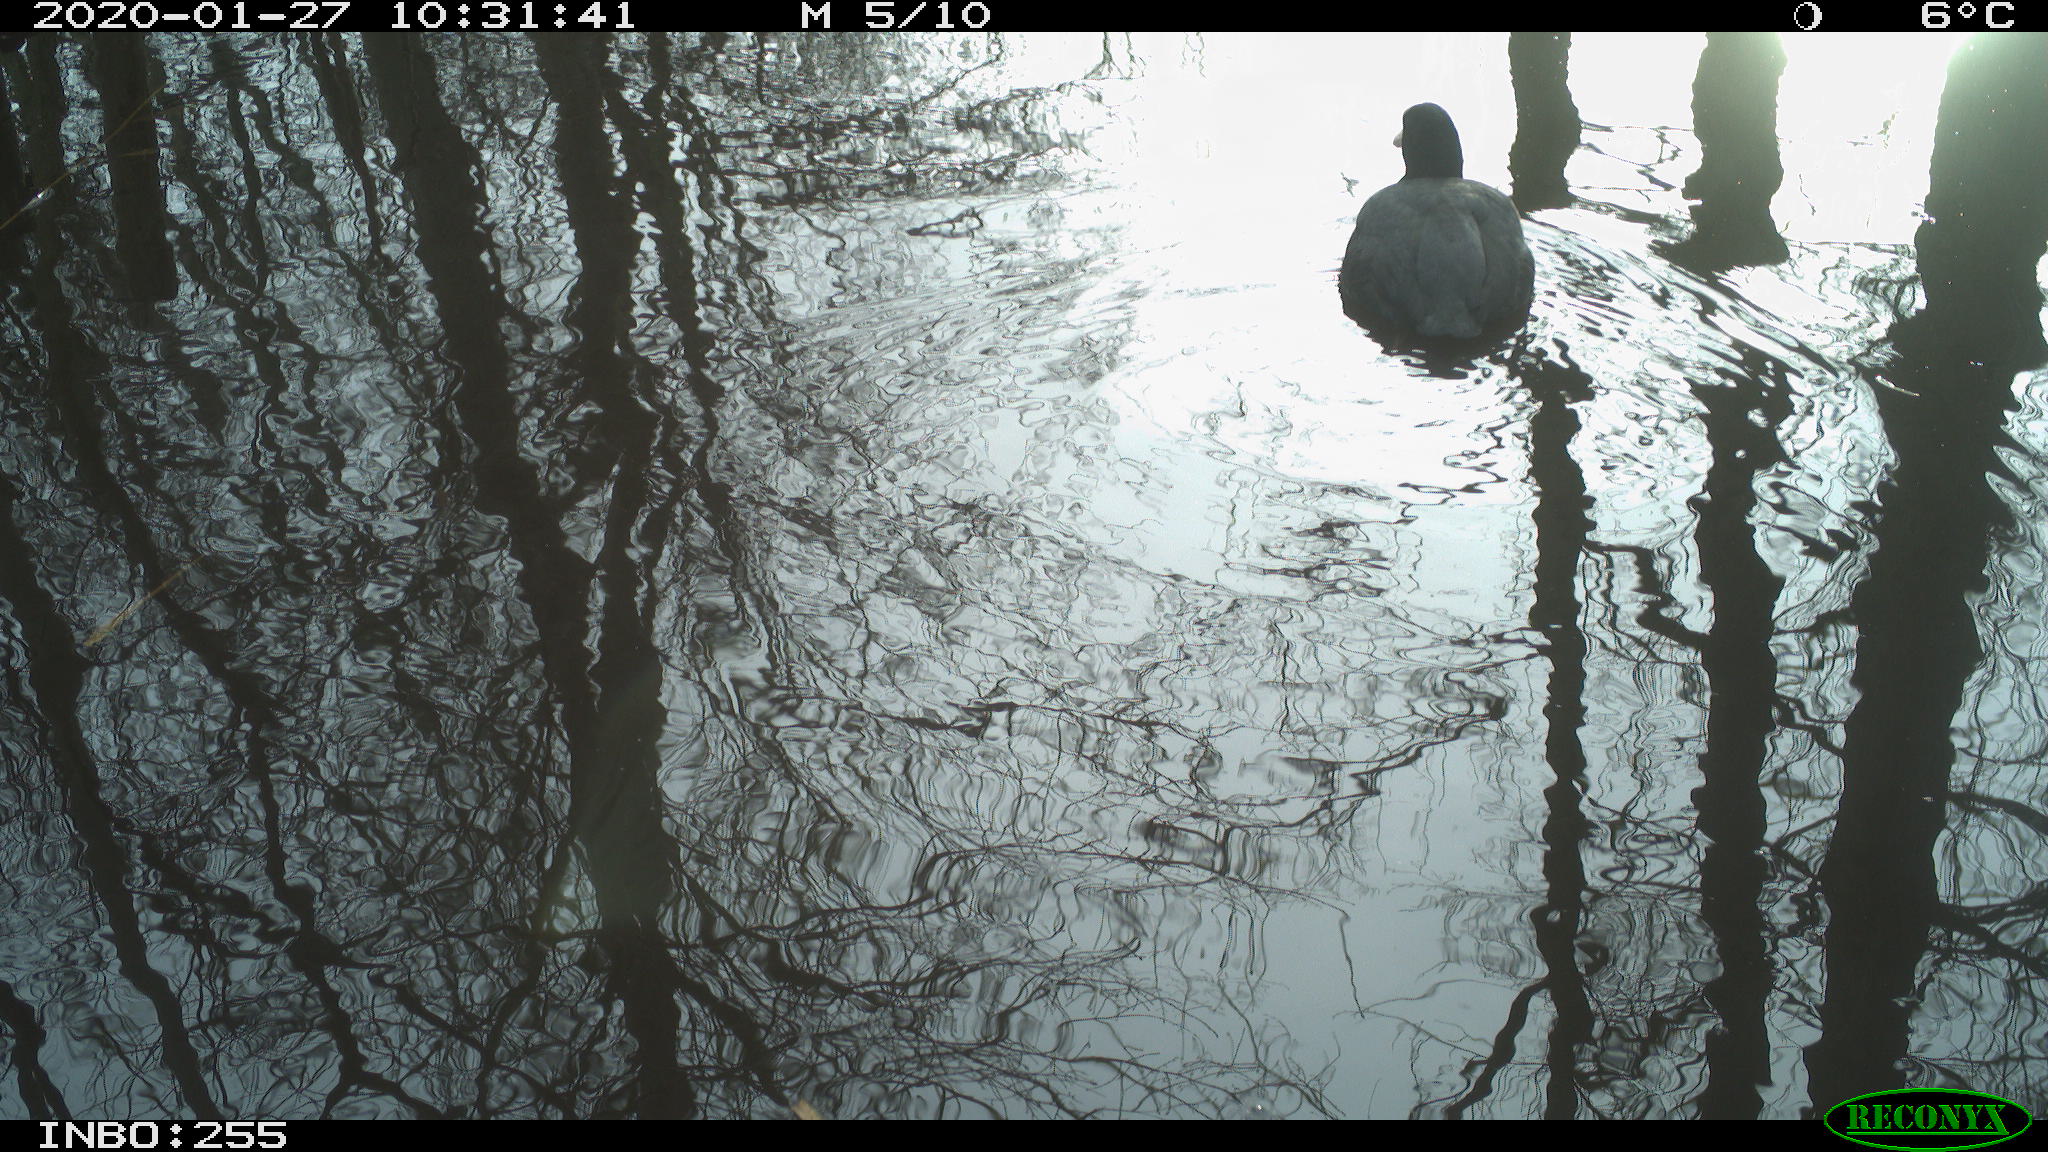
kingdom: Animalia
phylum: Chordata
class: Aves
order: Gruiformes
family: Rallidae
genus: Fulica
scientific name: Fulica atra
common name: Eurasian coot
